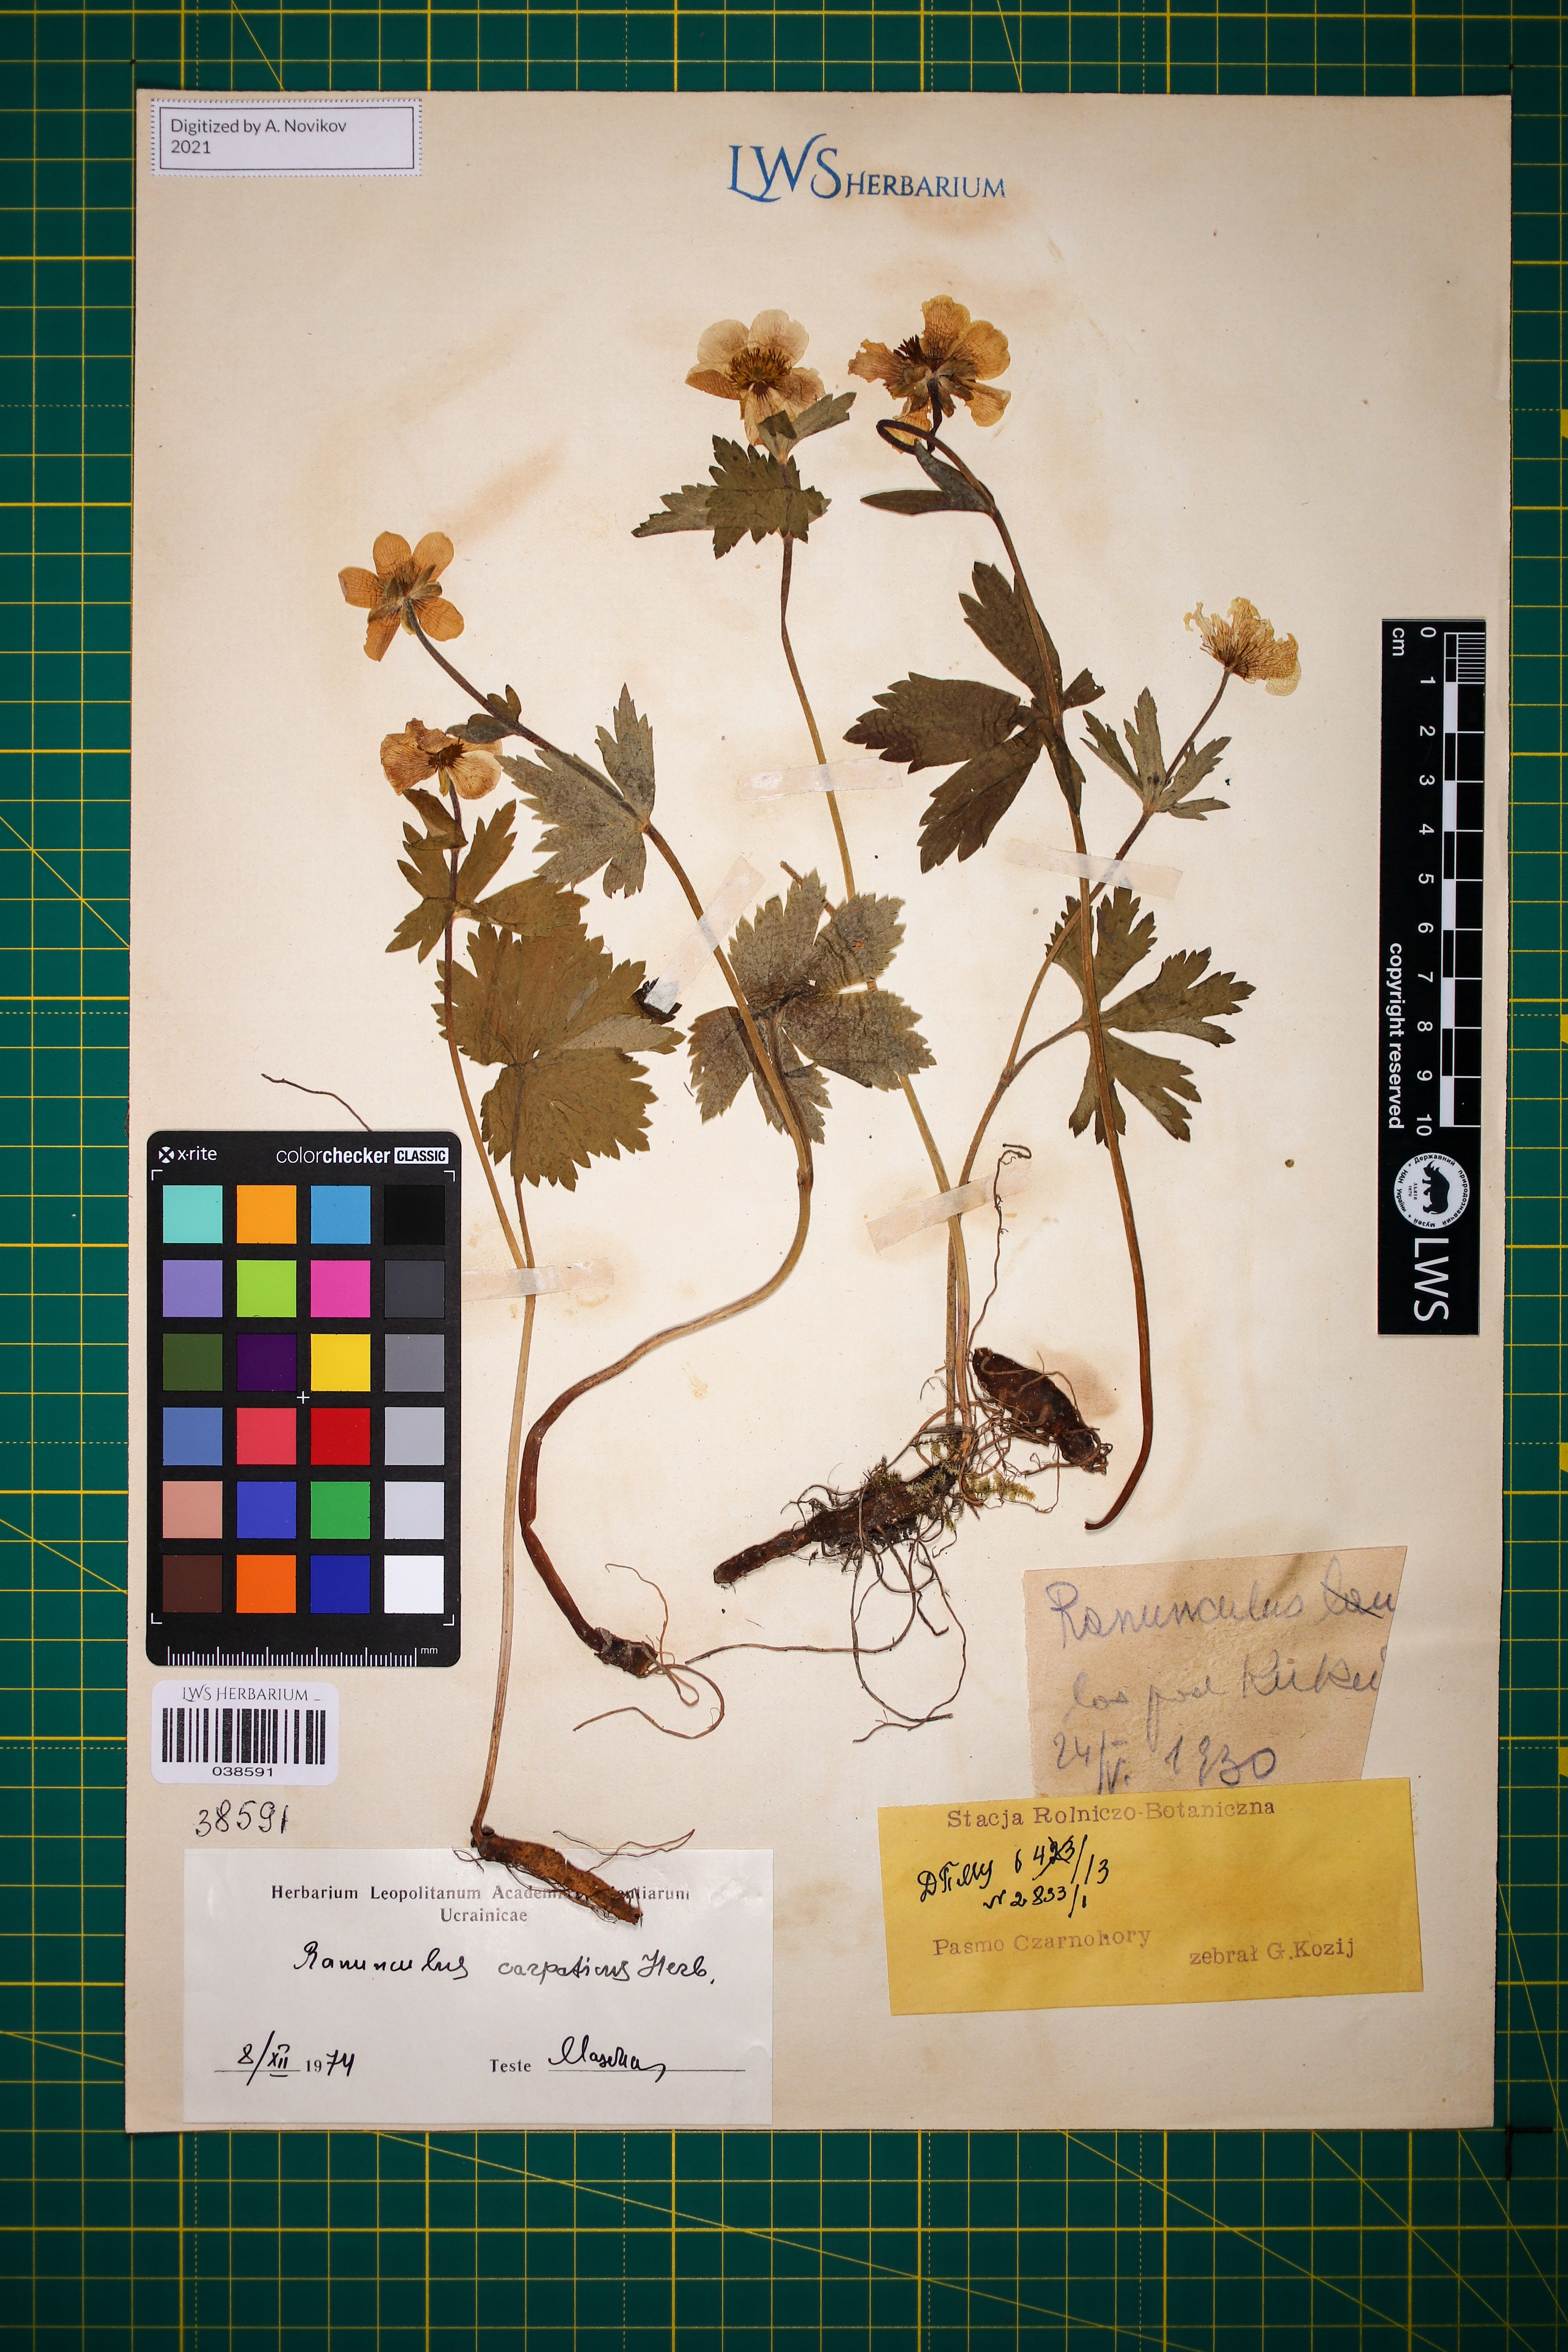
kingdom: Plantae
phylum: Tracheophyta
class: Magnoliopsida
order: Ranunculales
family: Ranunculaceae
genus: Ranunculus
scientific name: Ranunculus carpaticus
